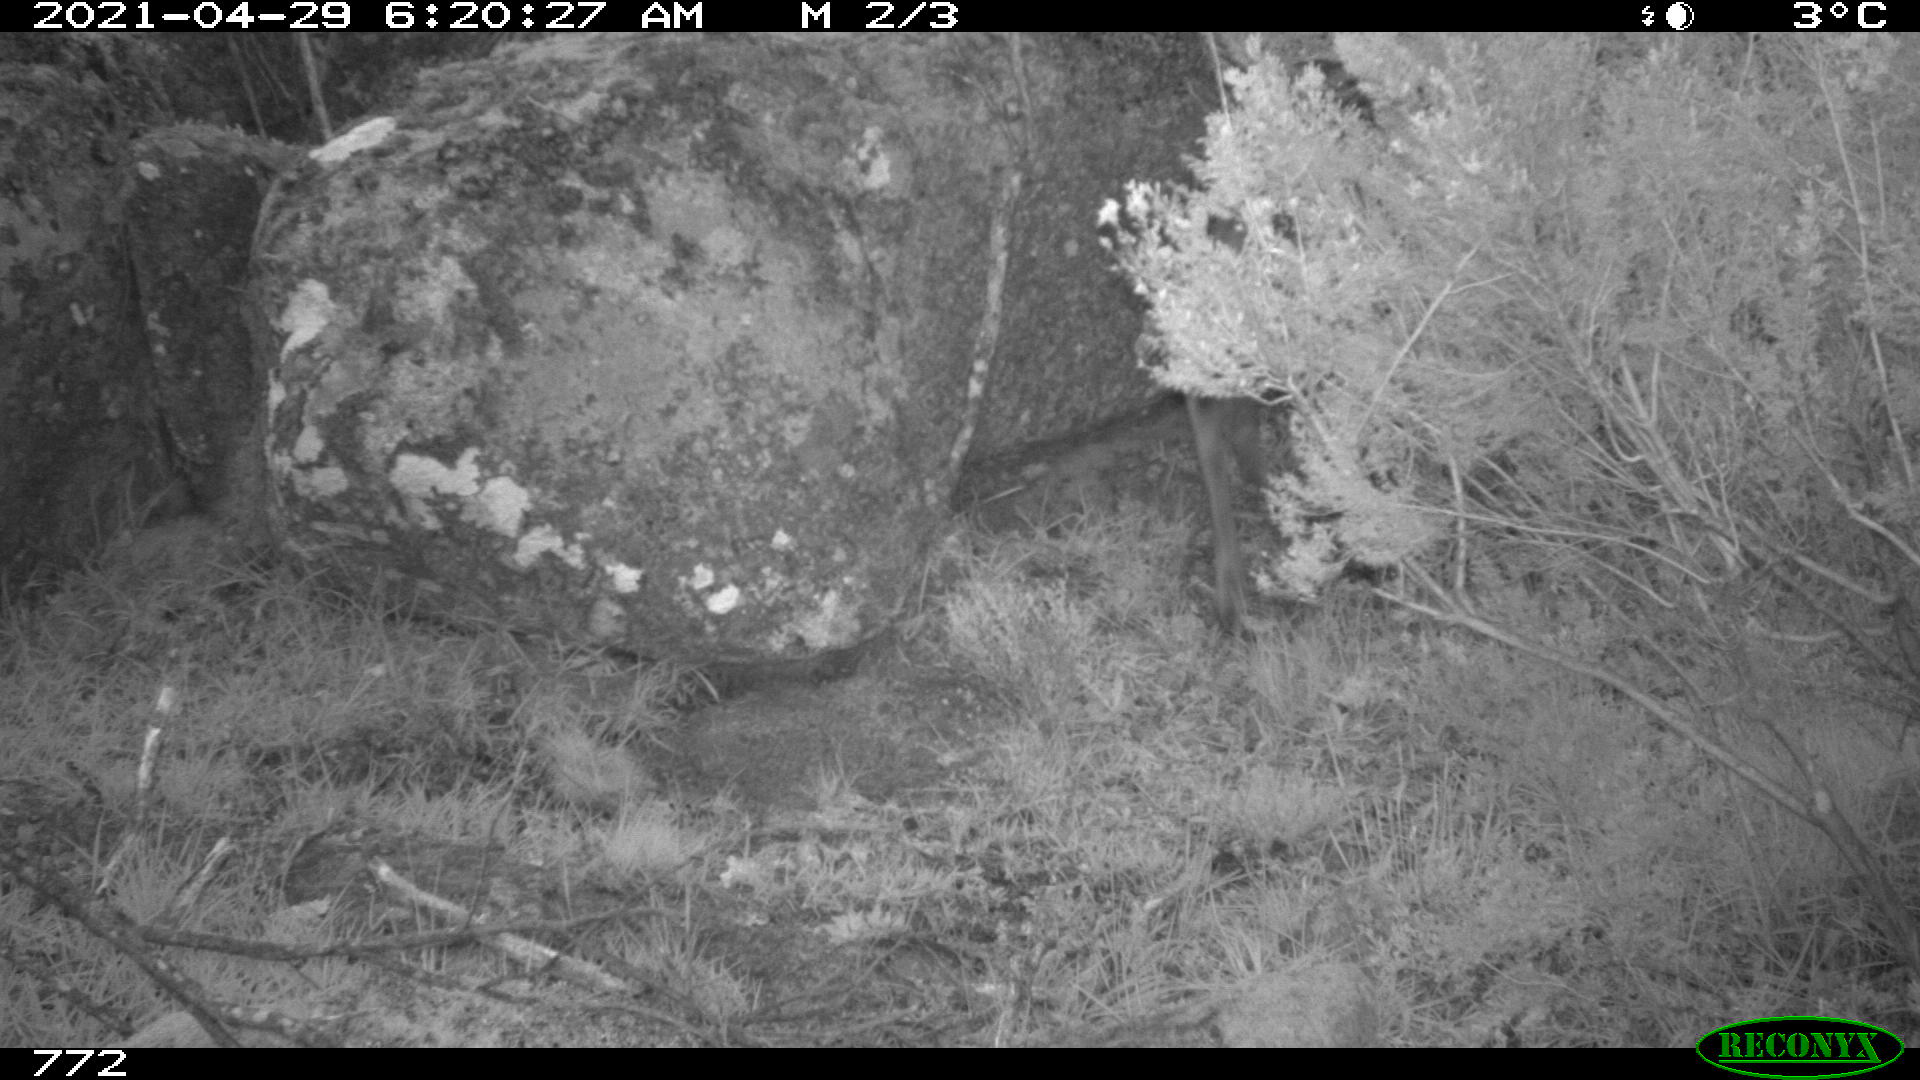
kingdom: Animalia
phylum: Chordata
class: Mammalia
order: Artiodactyla
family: Cervidae
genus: Capreolus
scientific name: Capreolus capreolus
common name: Western roe deer
